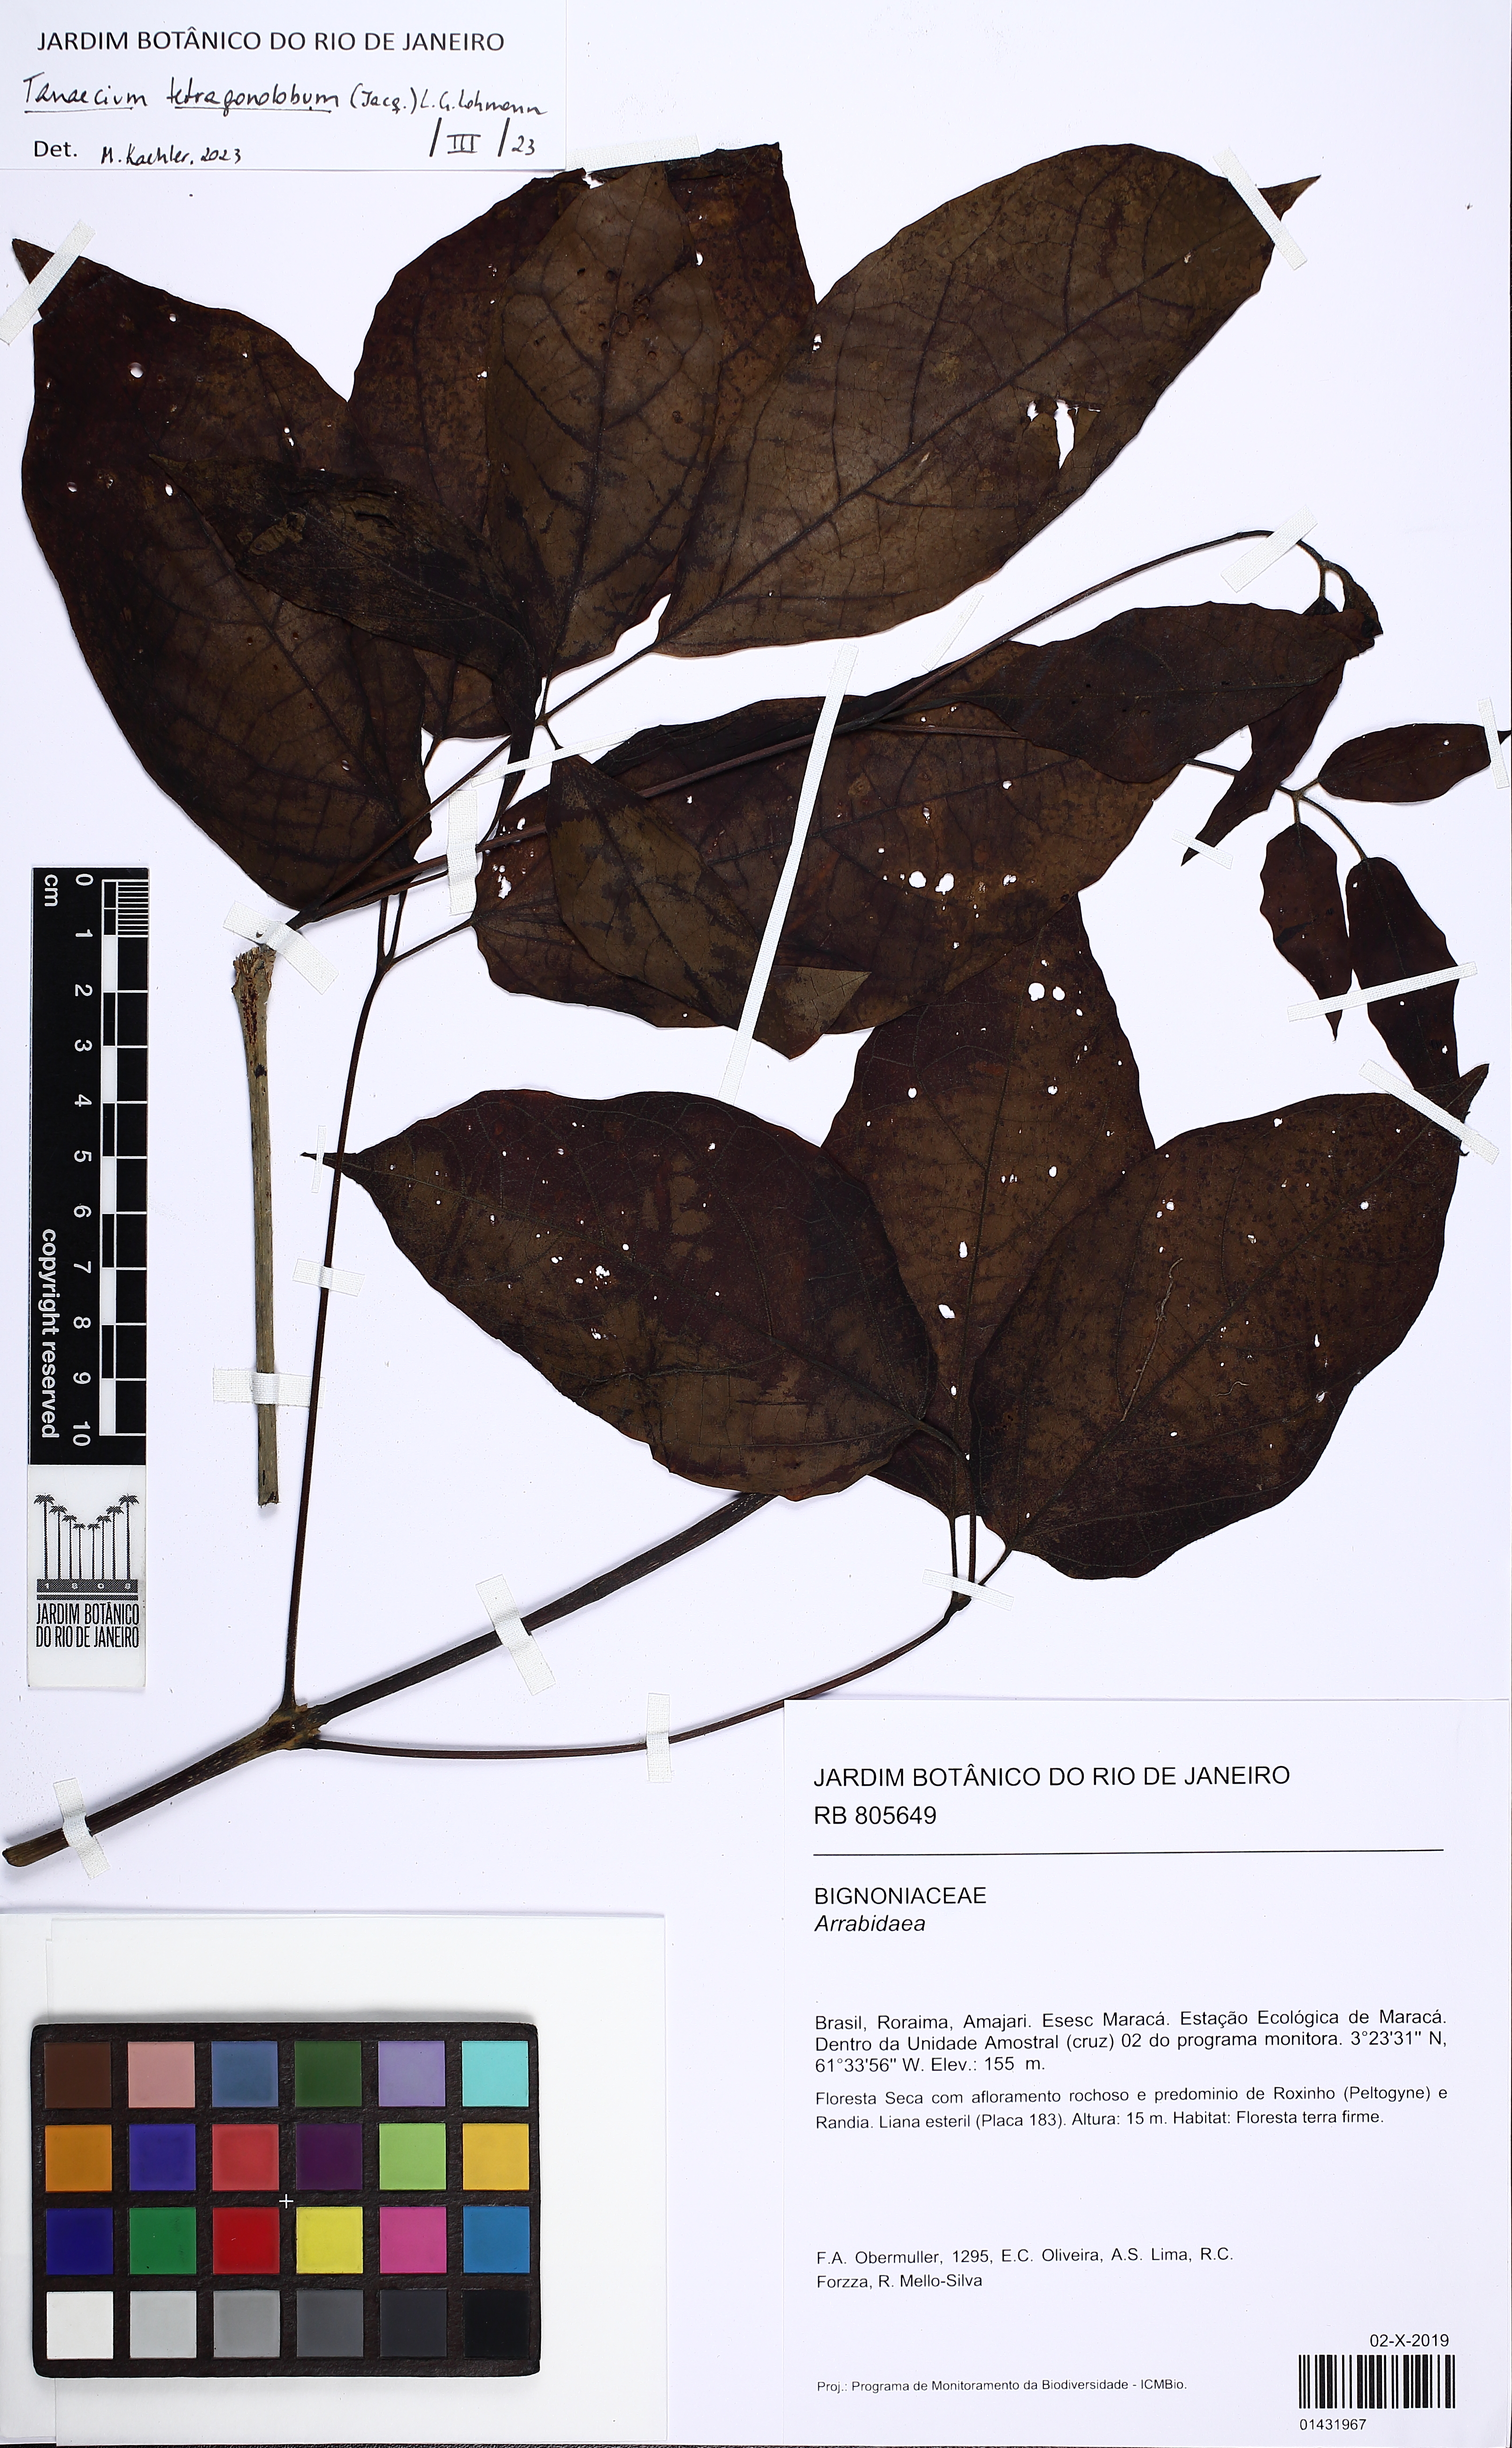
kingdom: Plantae
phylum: Tracheophyta
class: Magnoliopsida
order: Lamiales
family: Bignoniaceae
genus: Tanaecium
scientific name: Tanaecium tetragonolobum
